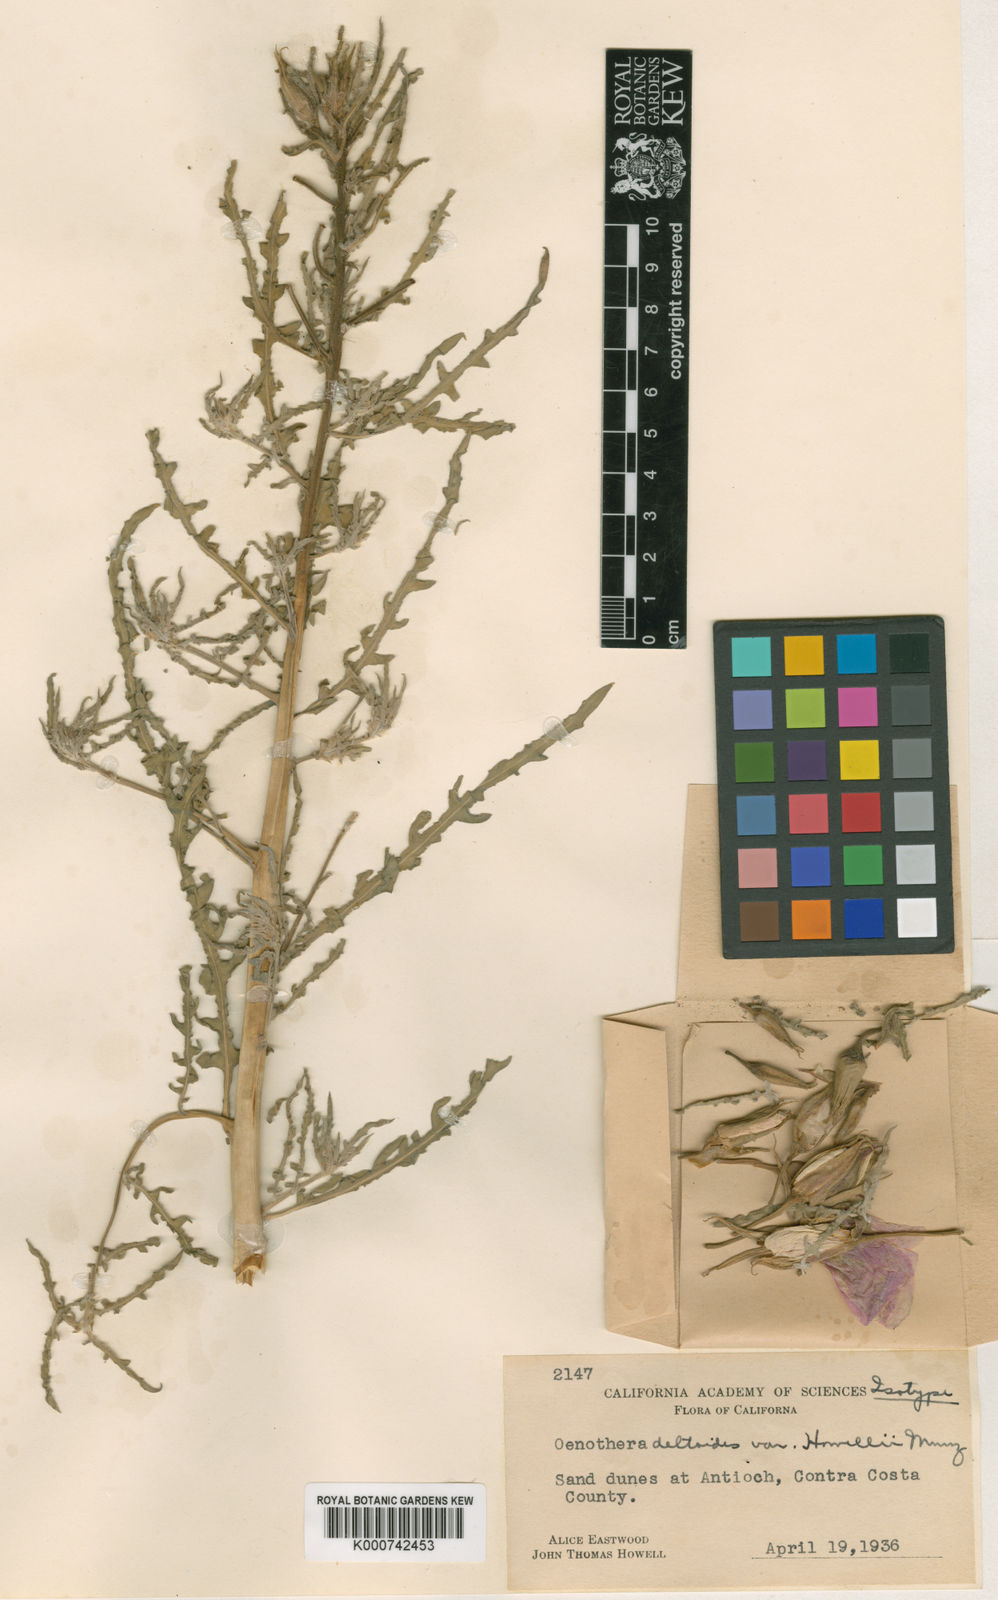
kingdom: Plantae
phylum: Tracheophyta
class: Magnoliopsida
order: Myrtales
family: Onagraceae
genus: Oenothera
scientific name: Oenothera
